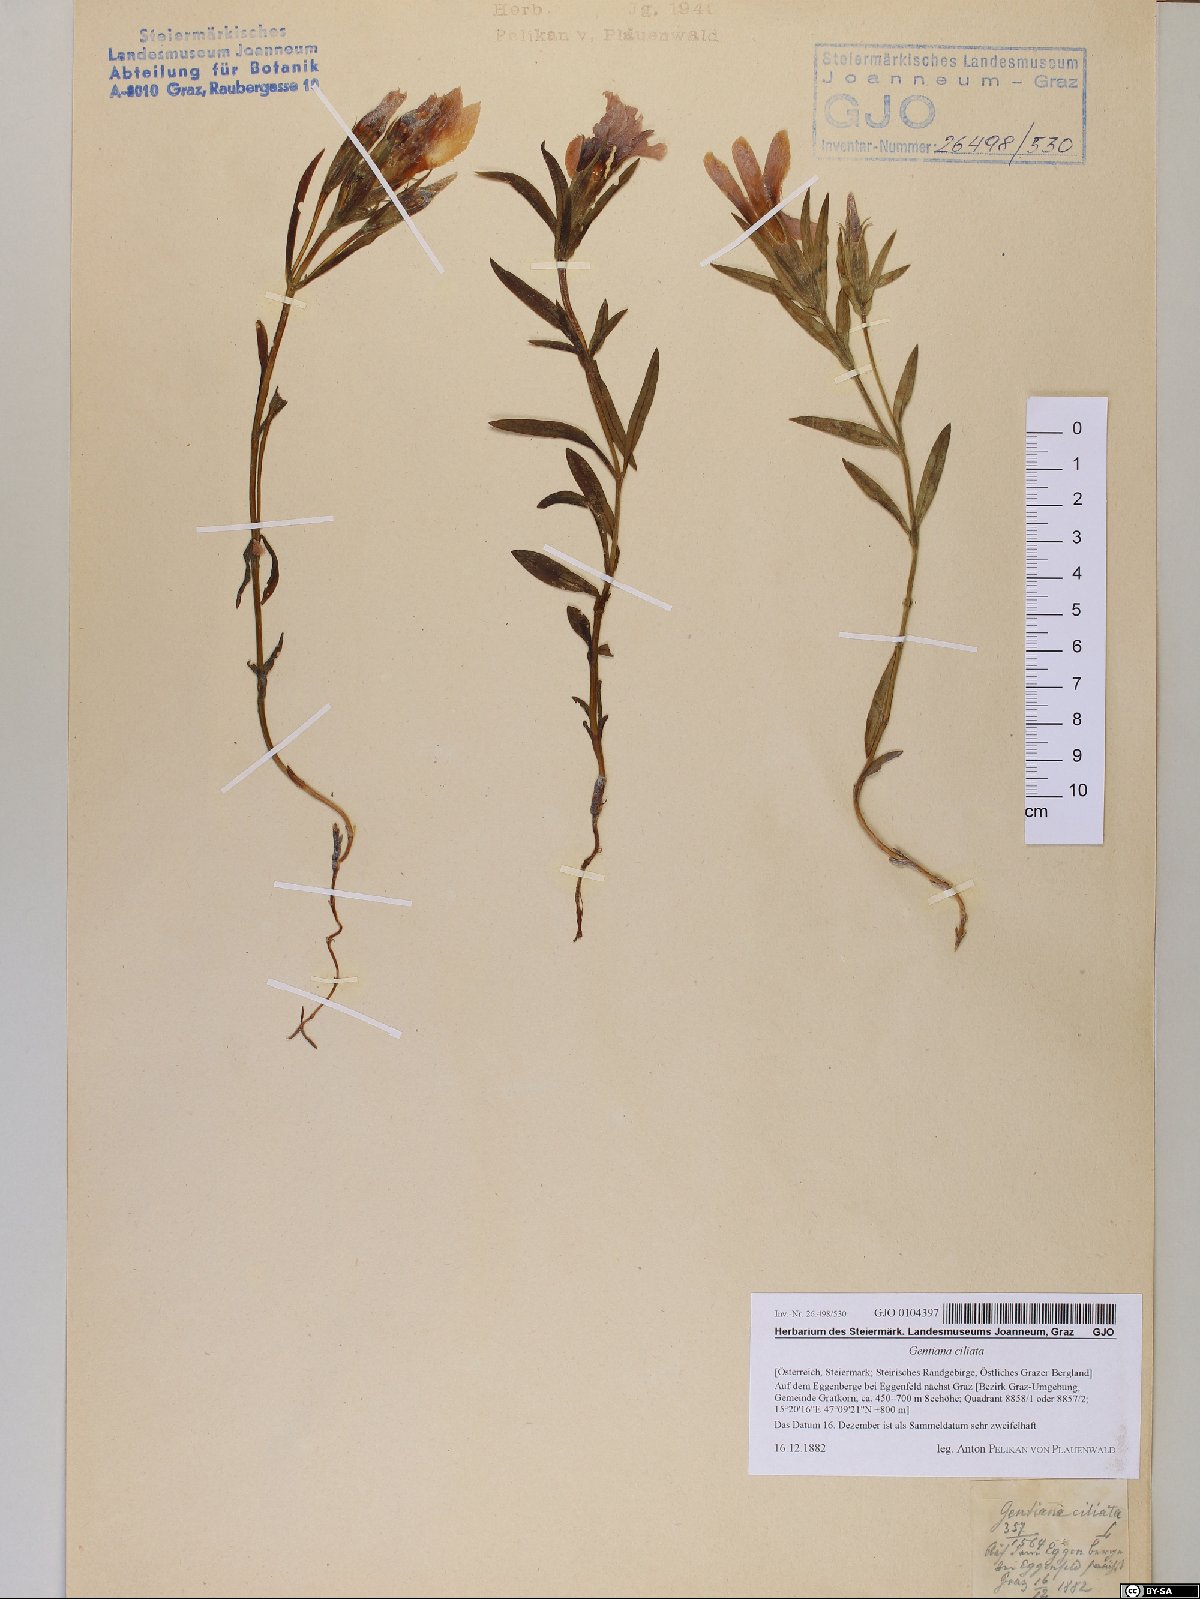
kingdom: Plantae
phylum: Tracheophyta
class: Magnoliopsida
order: Gentianales
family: Gentianaceae
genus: Gentianopsis
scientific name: Gentianopsis ciliata
